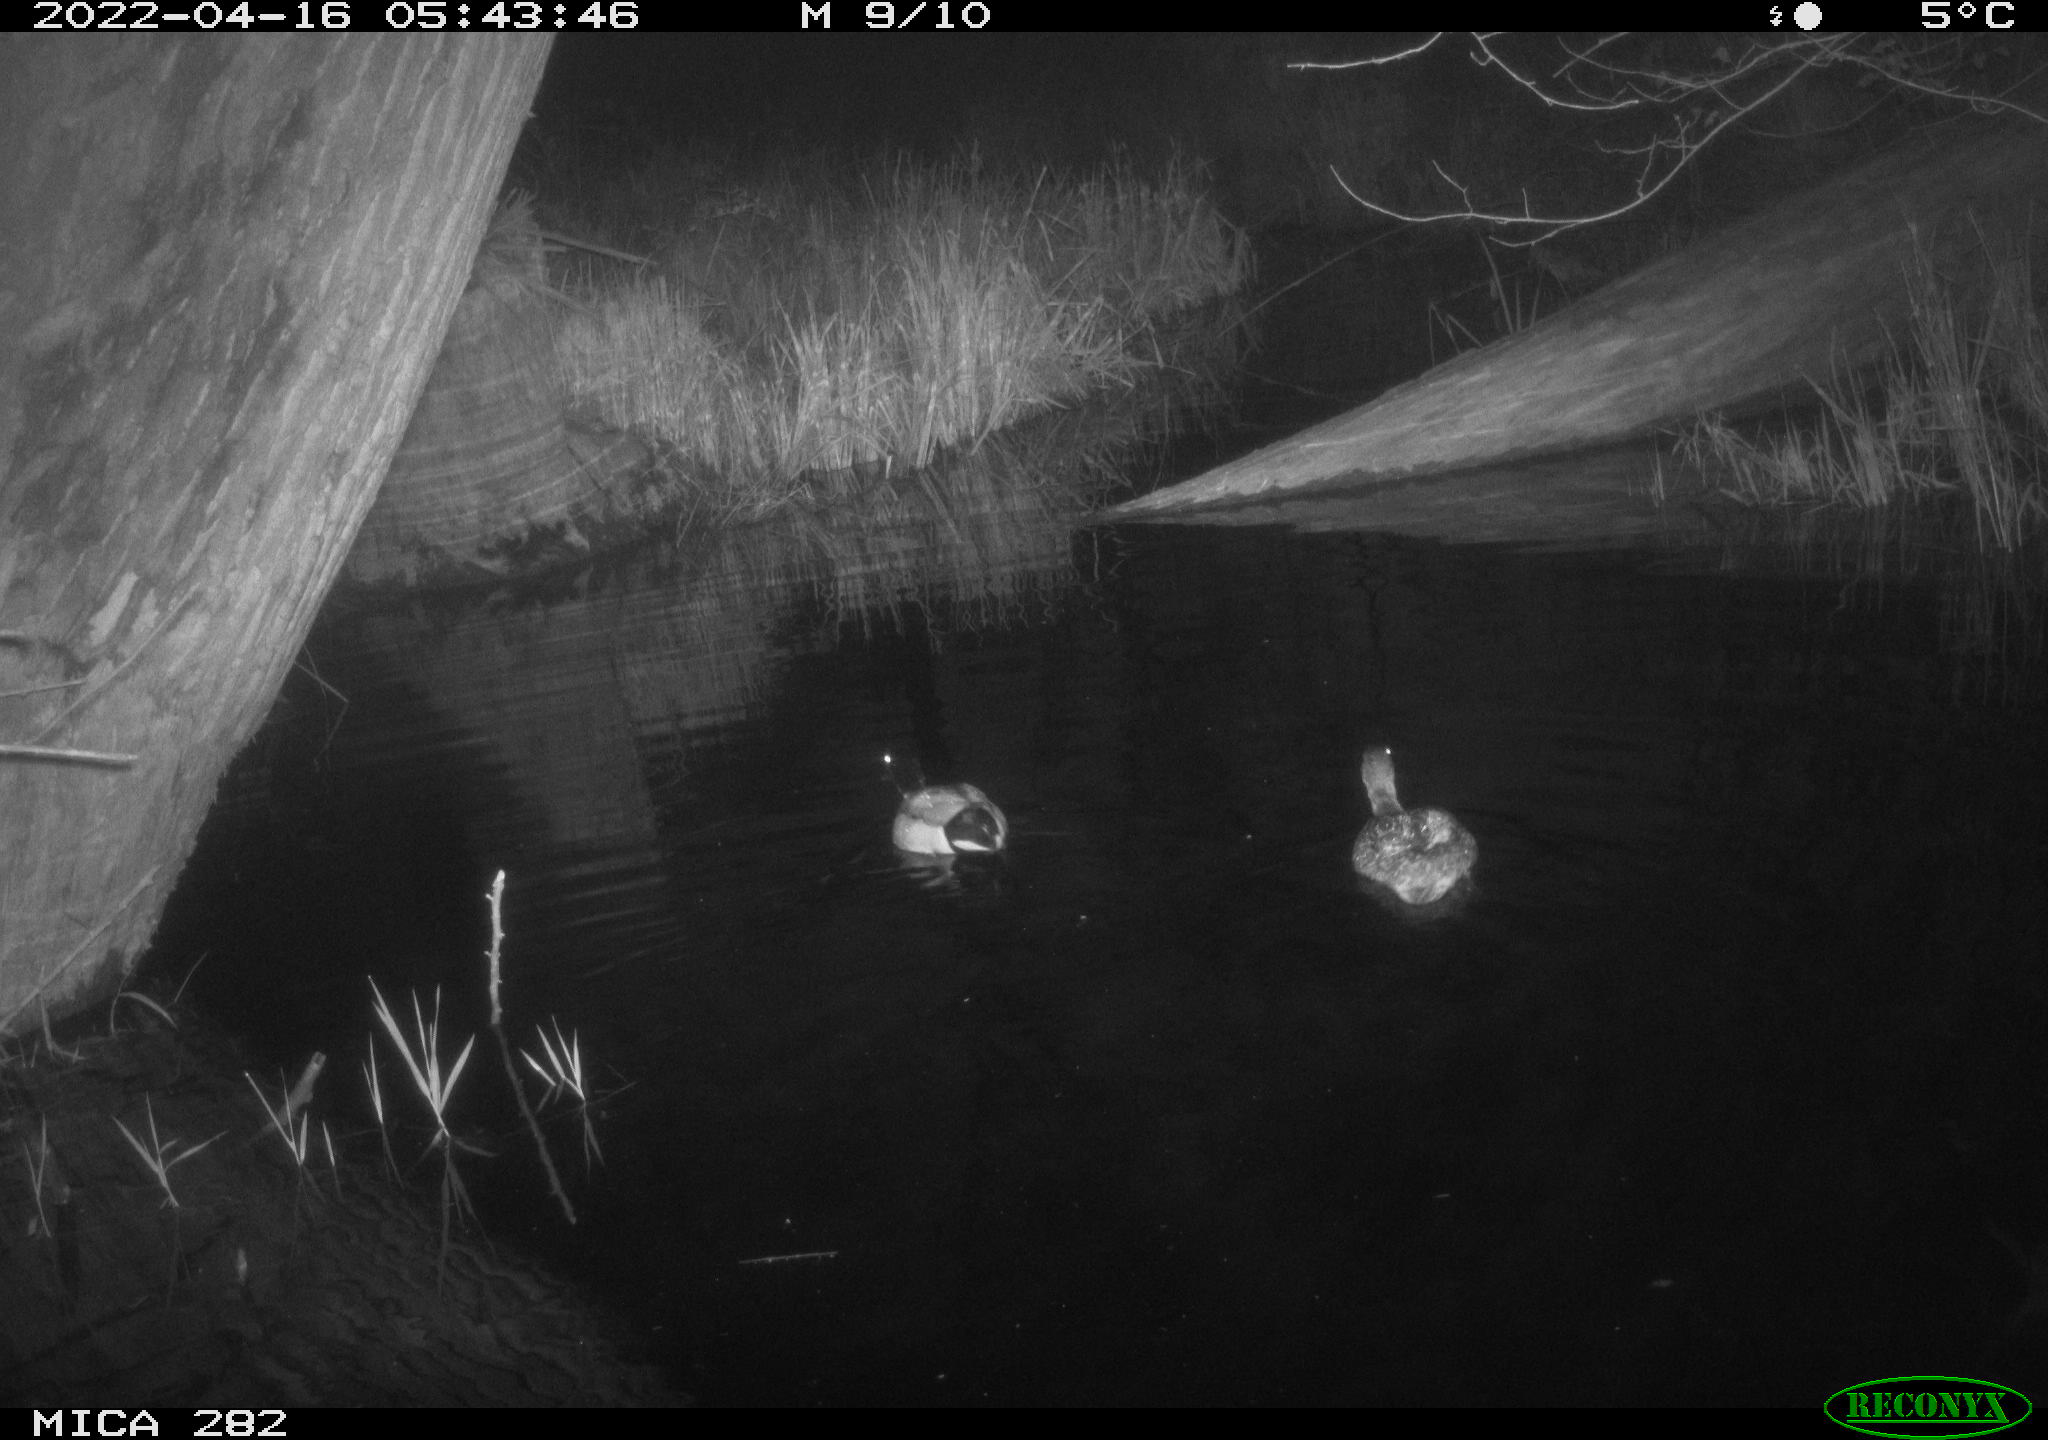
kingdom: Animalia
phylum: Chordata
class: Aves
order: Anseriformes
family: Anatidae
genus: Anas
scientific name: Anas platyrhynchos
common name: Mallard
